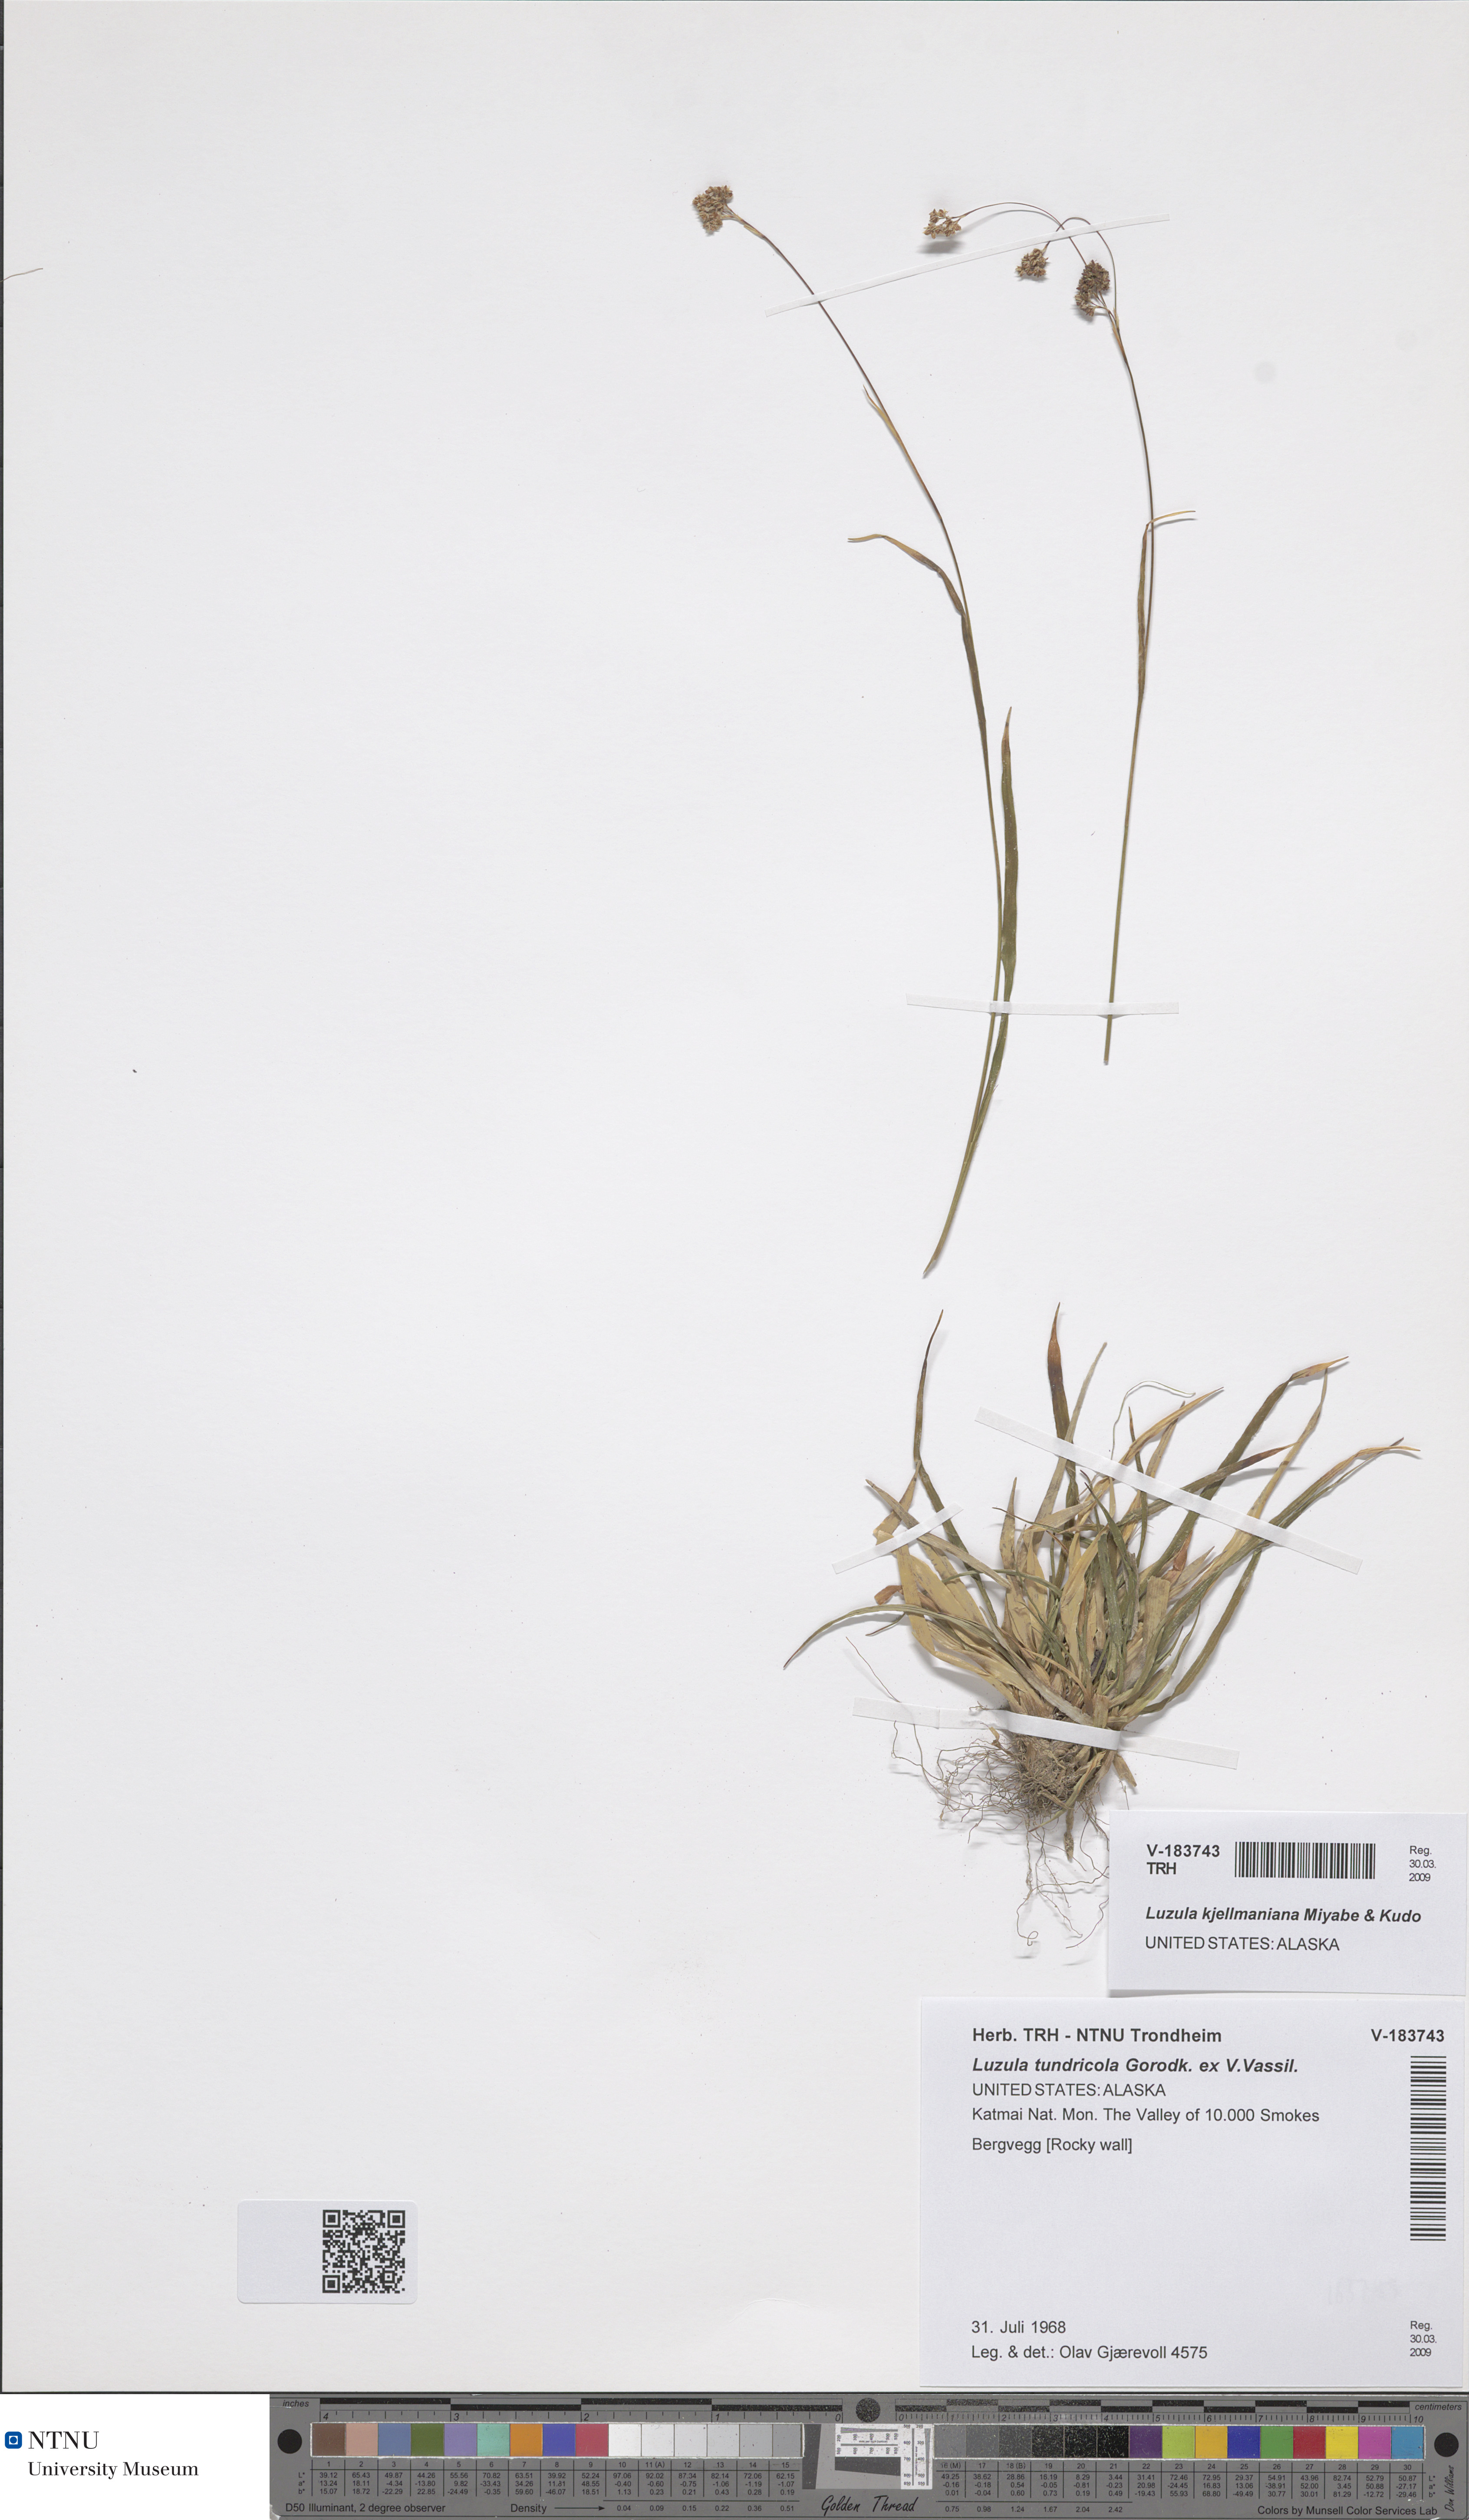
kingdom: Plantae
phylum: Tracheophyta
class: Liliopsida
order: Poales
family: Juncaceae
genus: Luzula
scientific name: Luzula kjellmaniana
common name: Kjellman's woodrush
